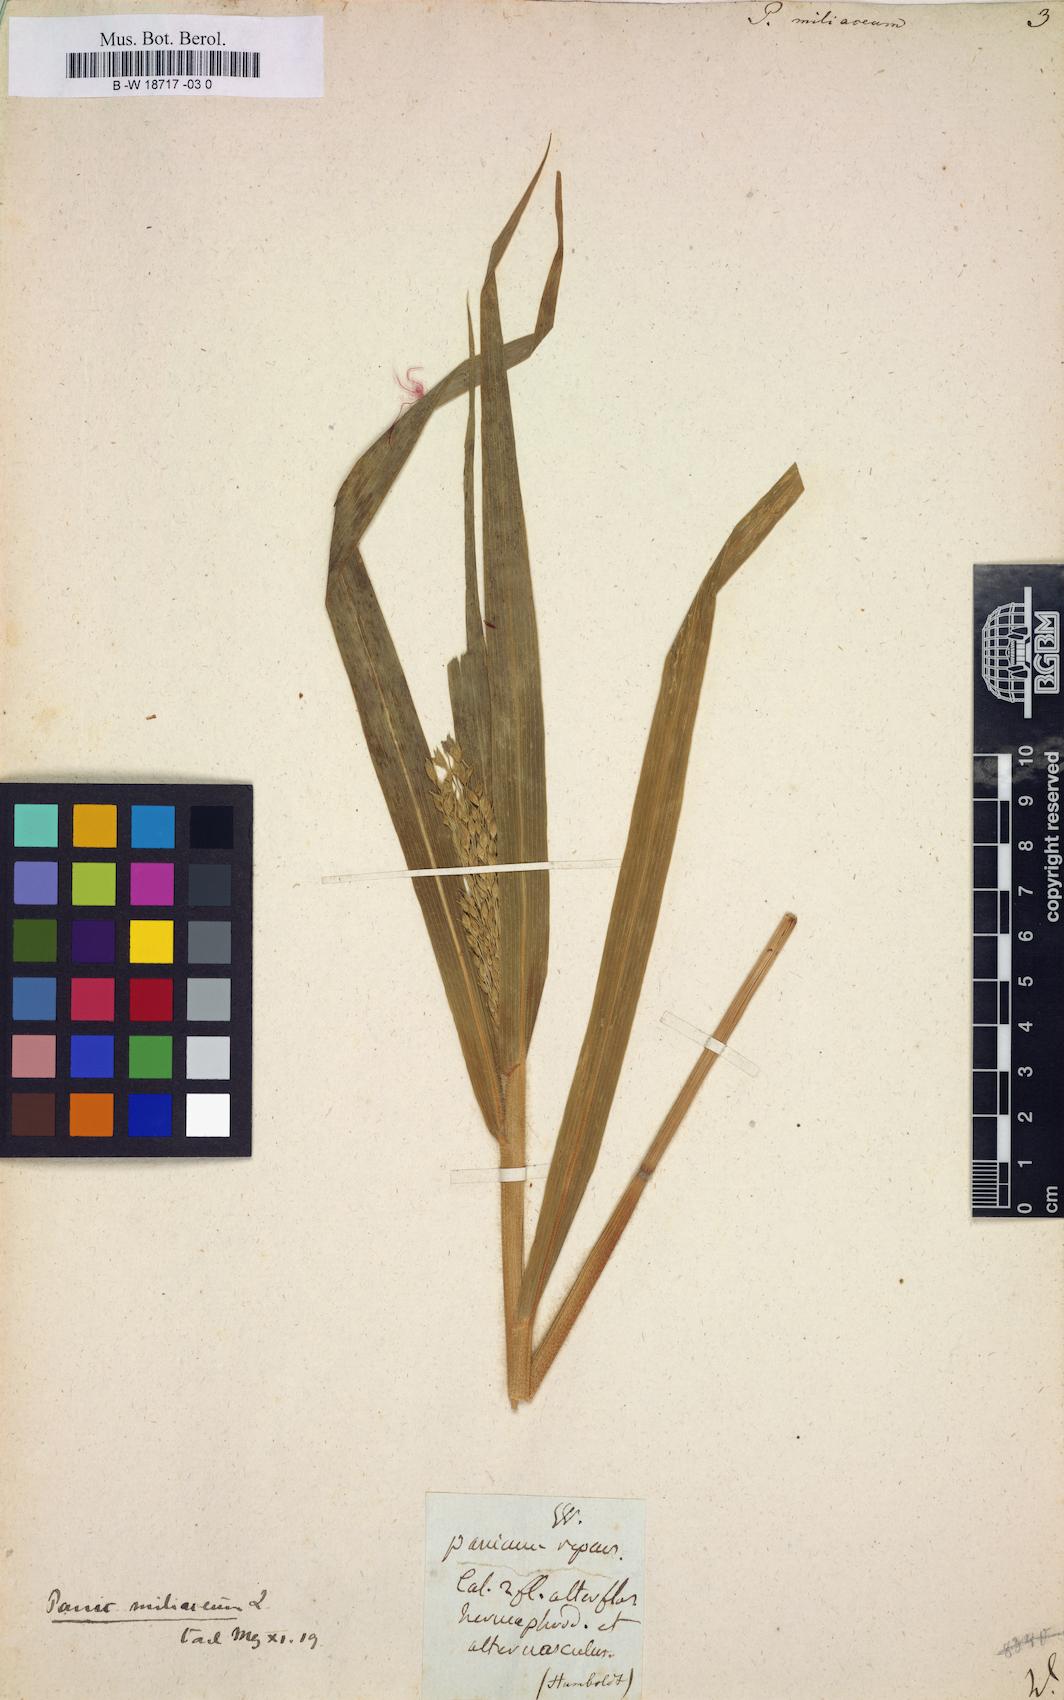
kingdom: Plantae
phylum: Tracheophyta
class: Liliopsida
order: Poales
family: Poaceae
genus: Panicum
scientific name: Panicum miliaceum
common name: Common millet
